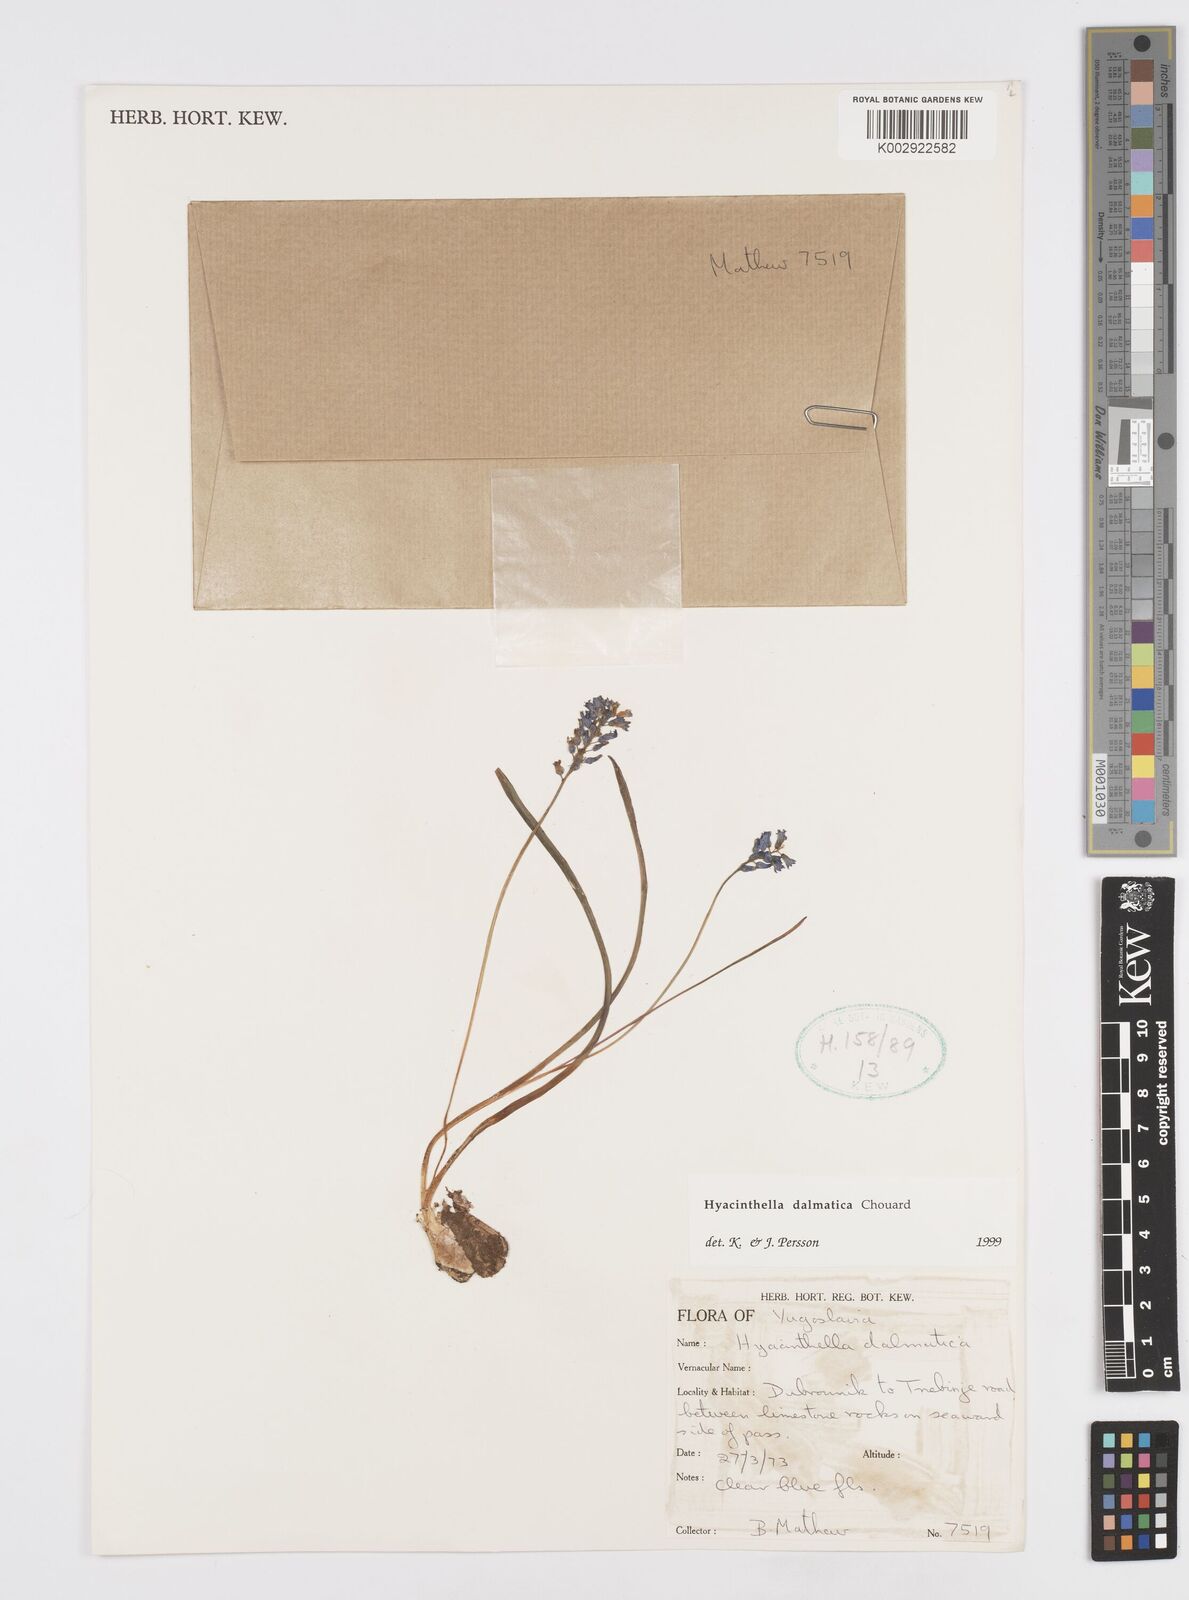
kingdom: Plantae
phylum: Tracheophyta
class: Liliopsida
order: Asparagales
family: Asparagaceae
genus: Hyacinthella
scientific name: Hyacinthella leucophaea
